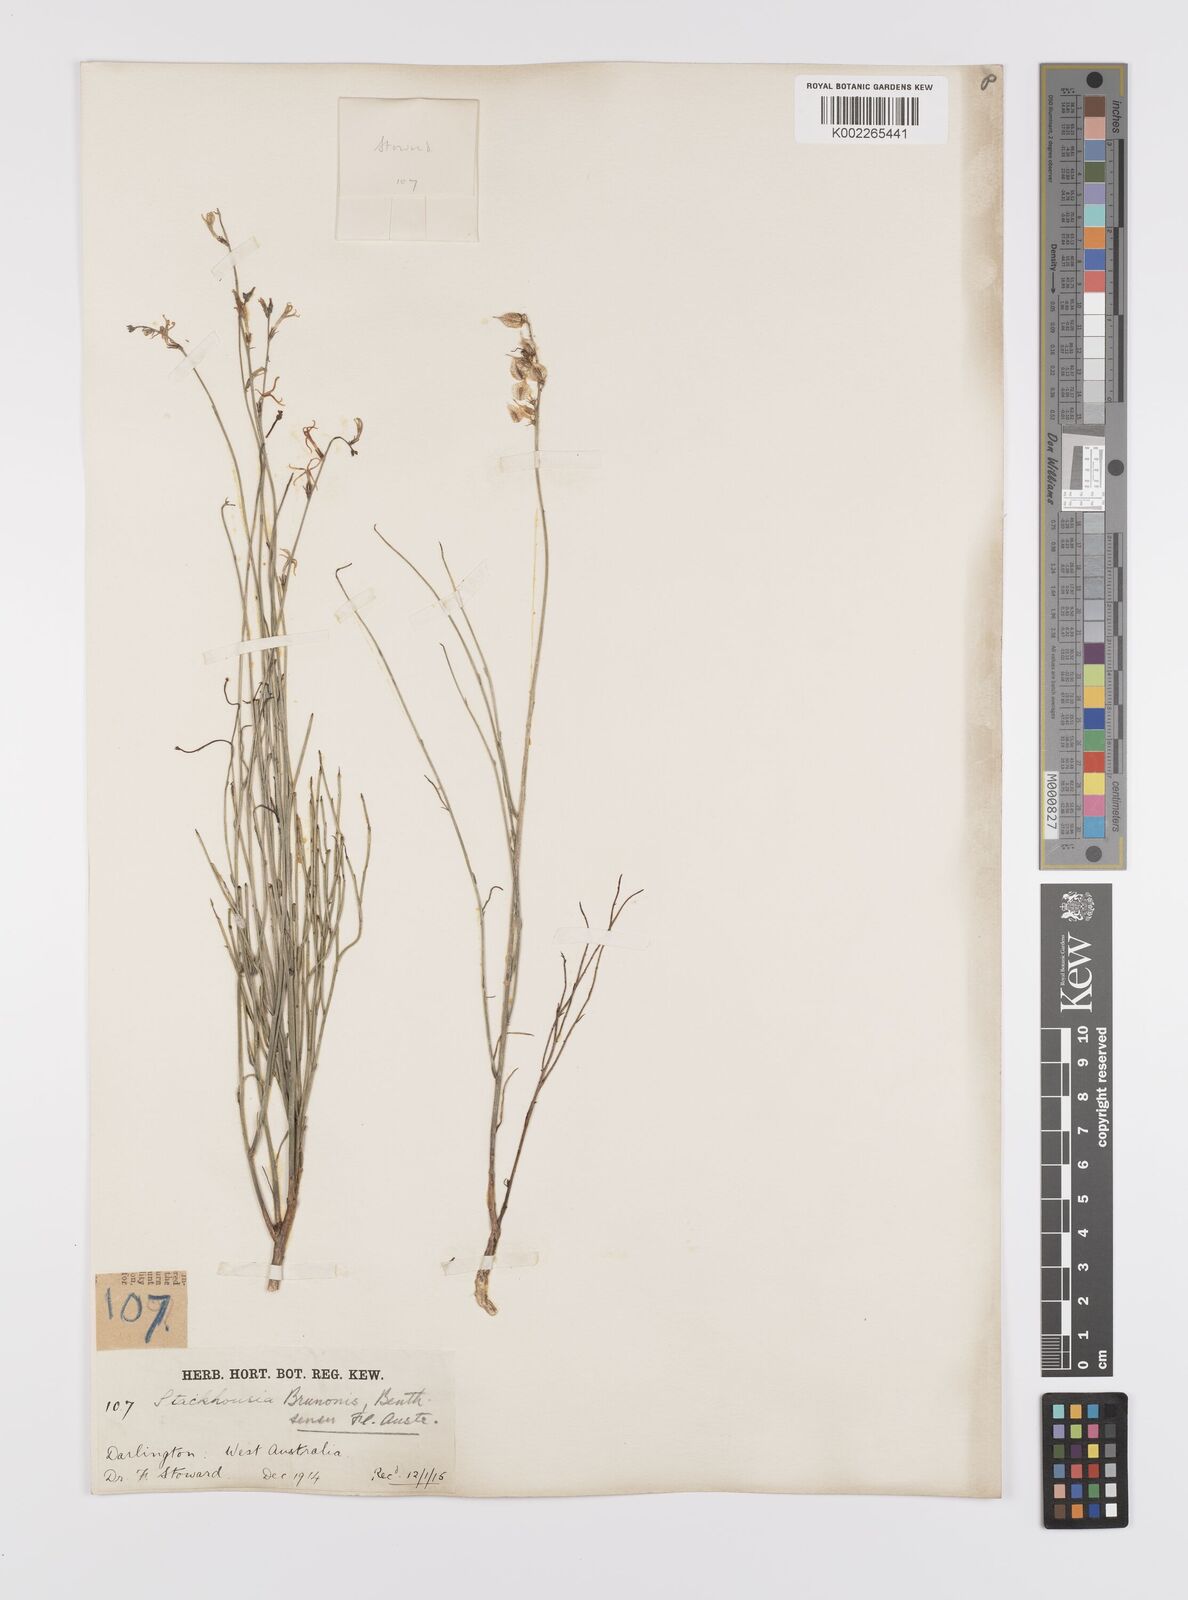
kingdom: Plantae
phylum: Tracheophyta
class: Magnoliopsida
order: Celastrales
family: Celastraceae
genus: Tripterococcus
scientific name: Tripterococcus brunonis
